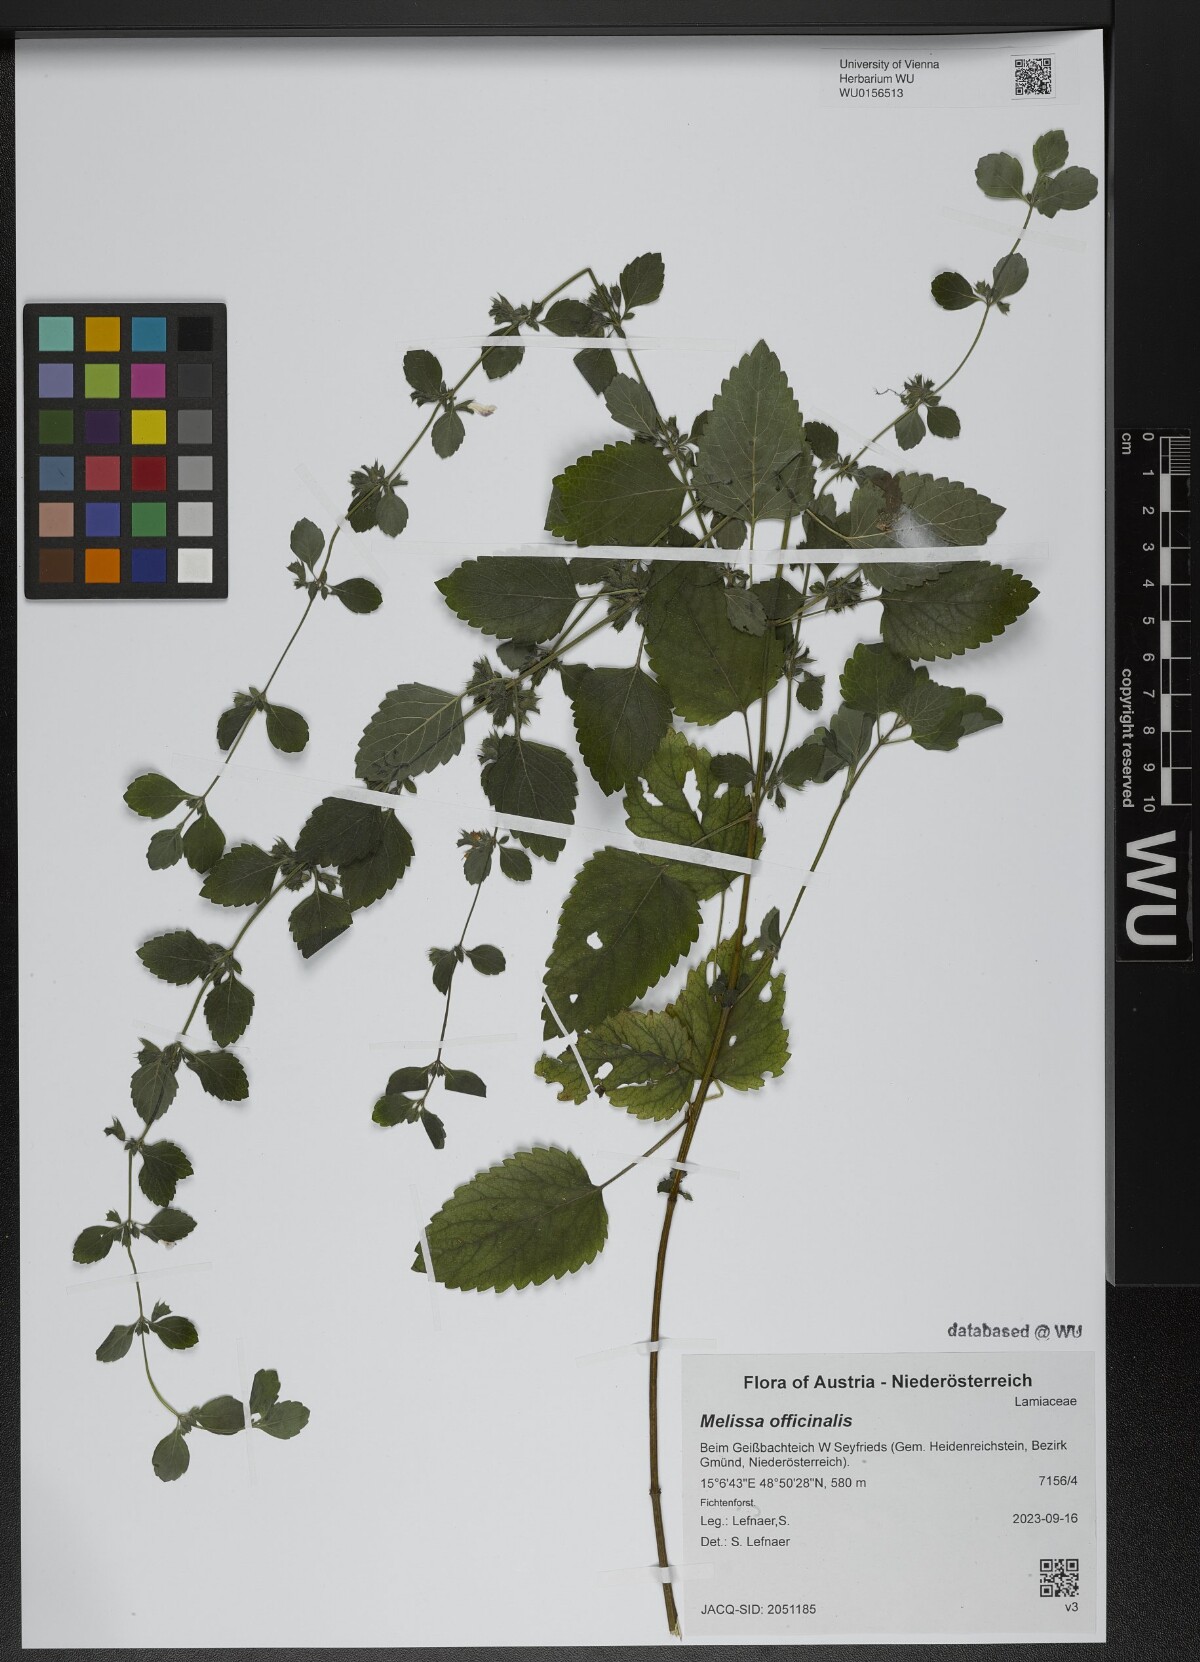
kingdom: Plantae
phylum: Tracheophyta
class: Magnoliopsida
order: Lamiales
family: Lamiaceae
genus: Melissa
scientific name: Melissa officinalis
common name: Balm
